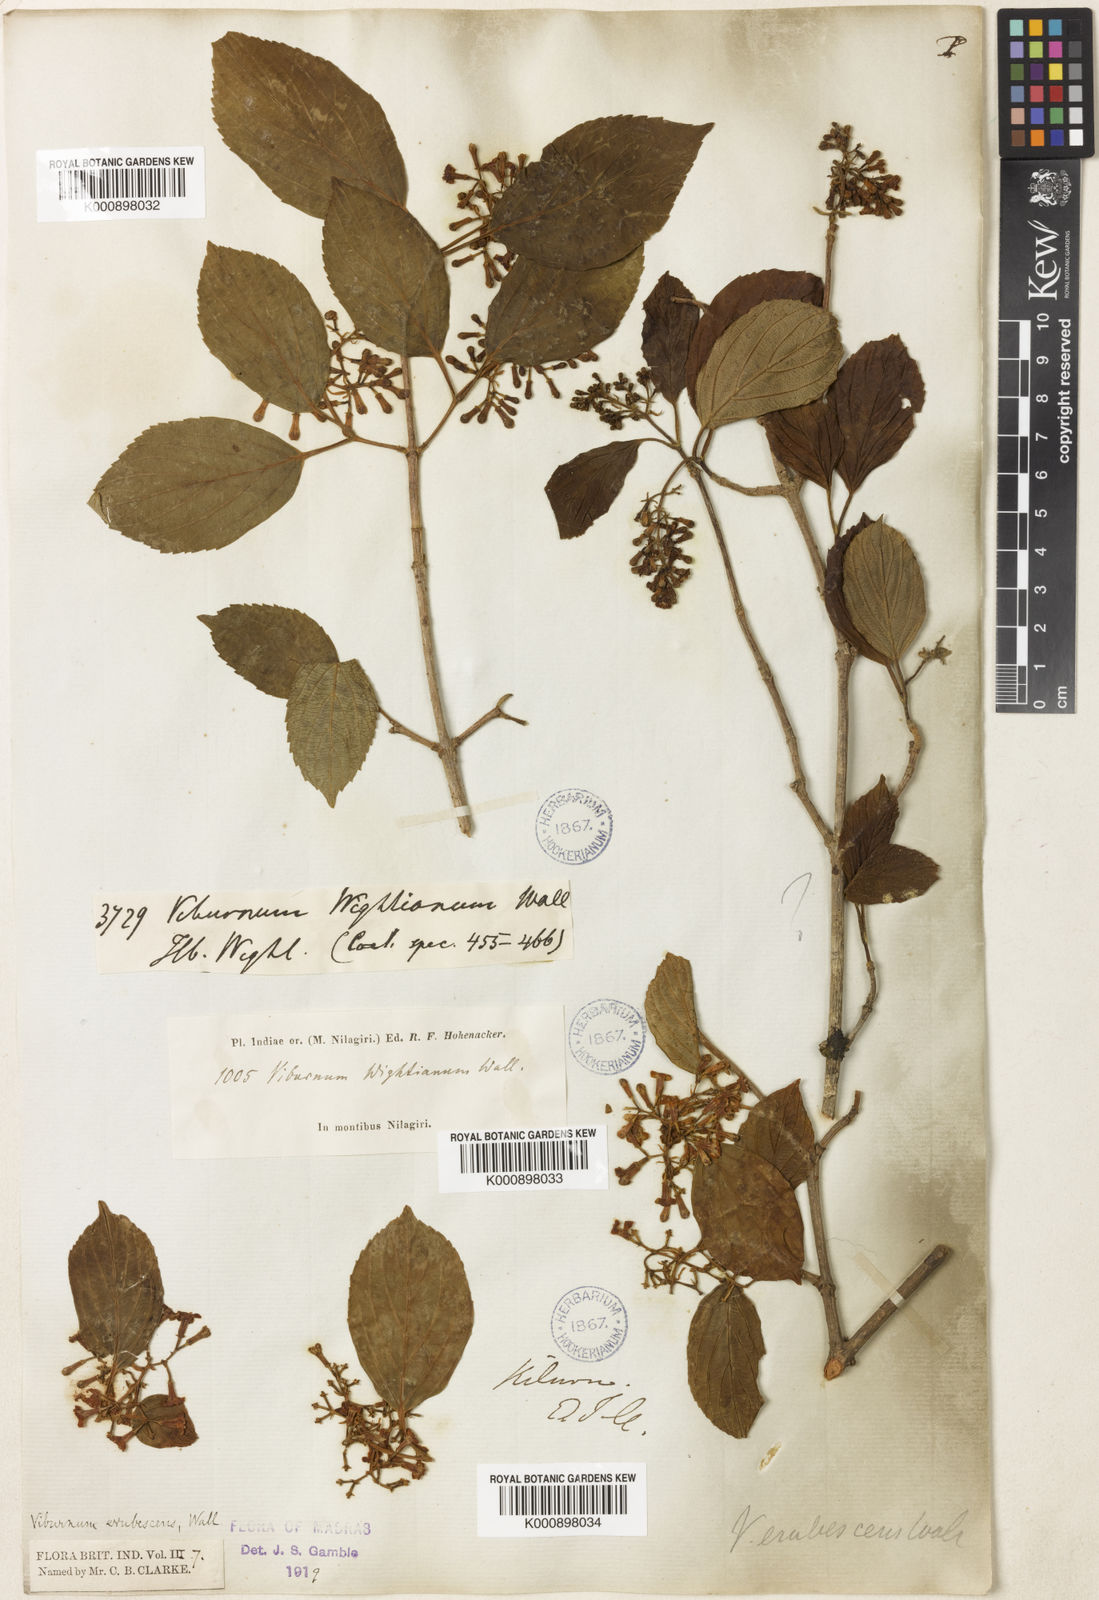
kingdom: Plantae
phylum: Tracheophyta
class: Magnoliopsida
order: Dipsacales
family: Viburnaceae
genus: Viburnum
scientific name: Viburnum
